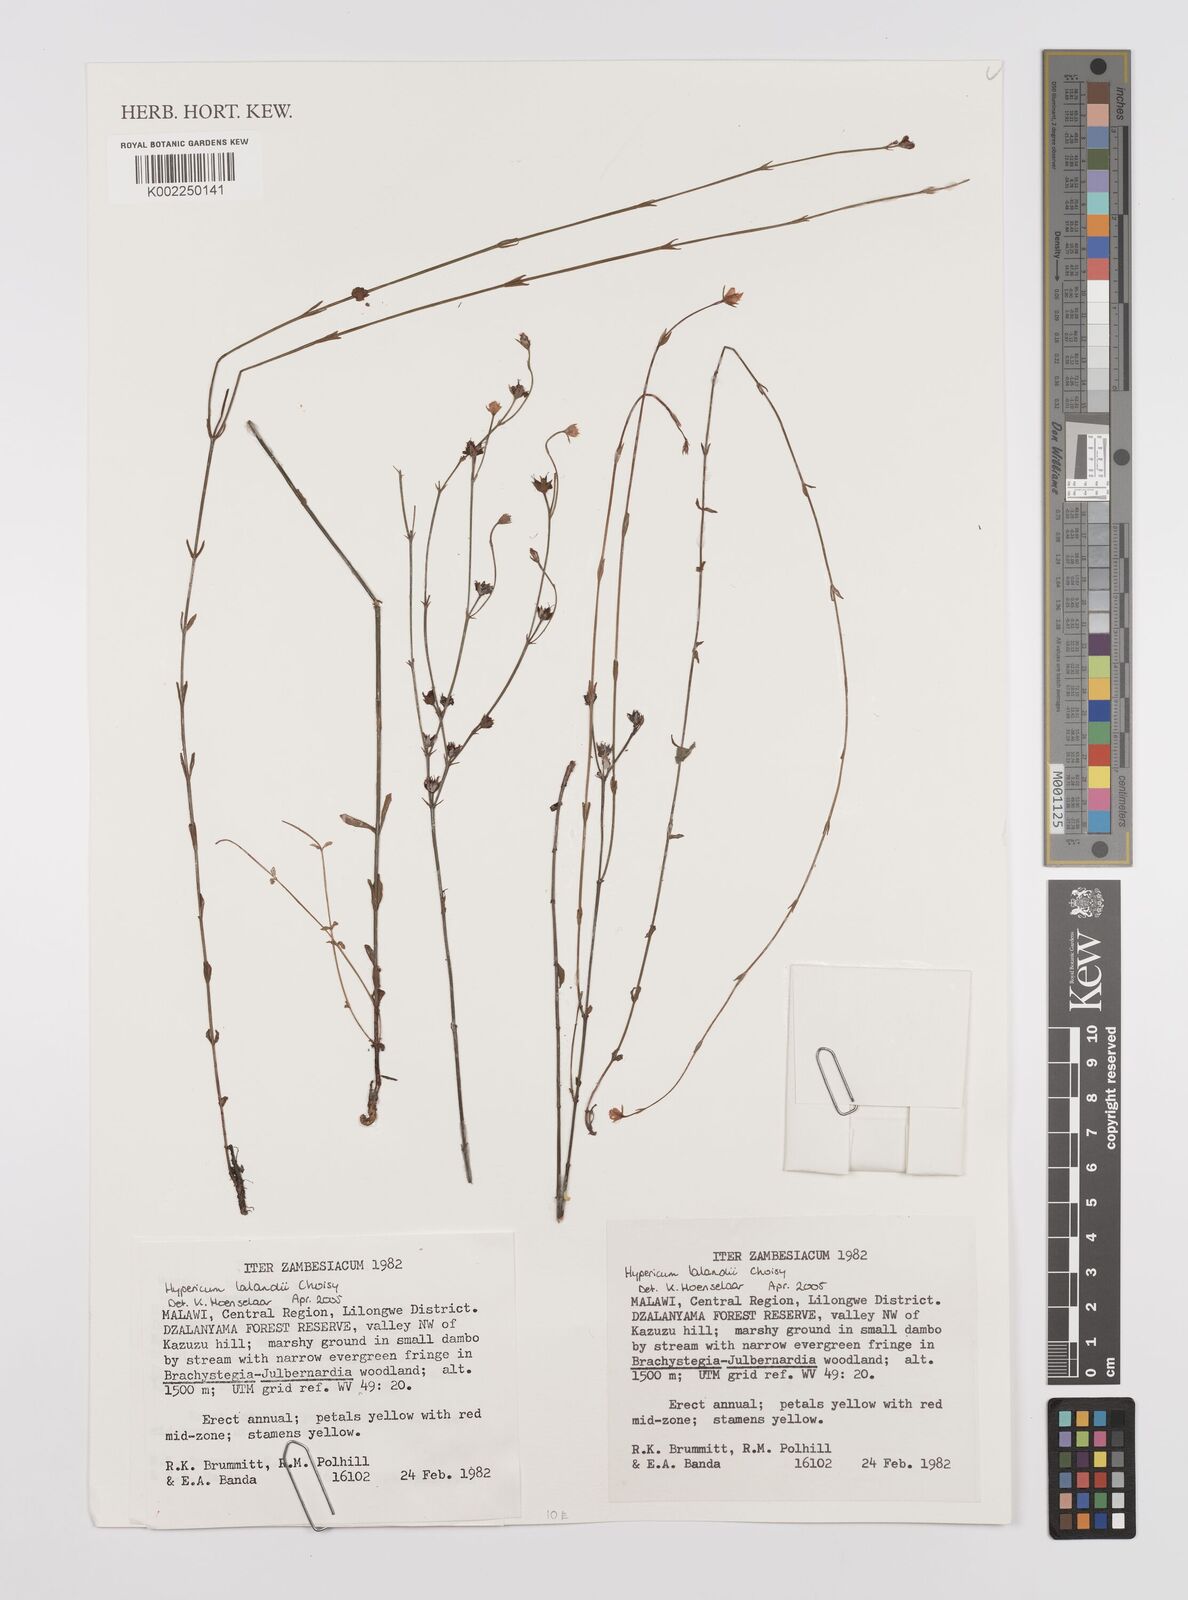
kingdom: Plantae
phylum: Tracheophyta
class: Magnoliopsida
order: Malpighiales
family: Hypericaceae
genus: Hypericum
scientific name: Hypericum lalandii
